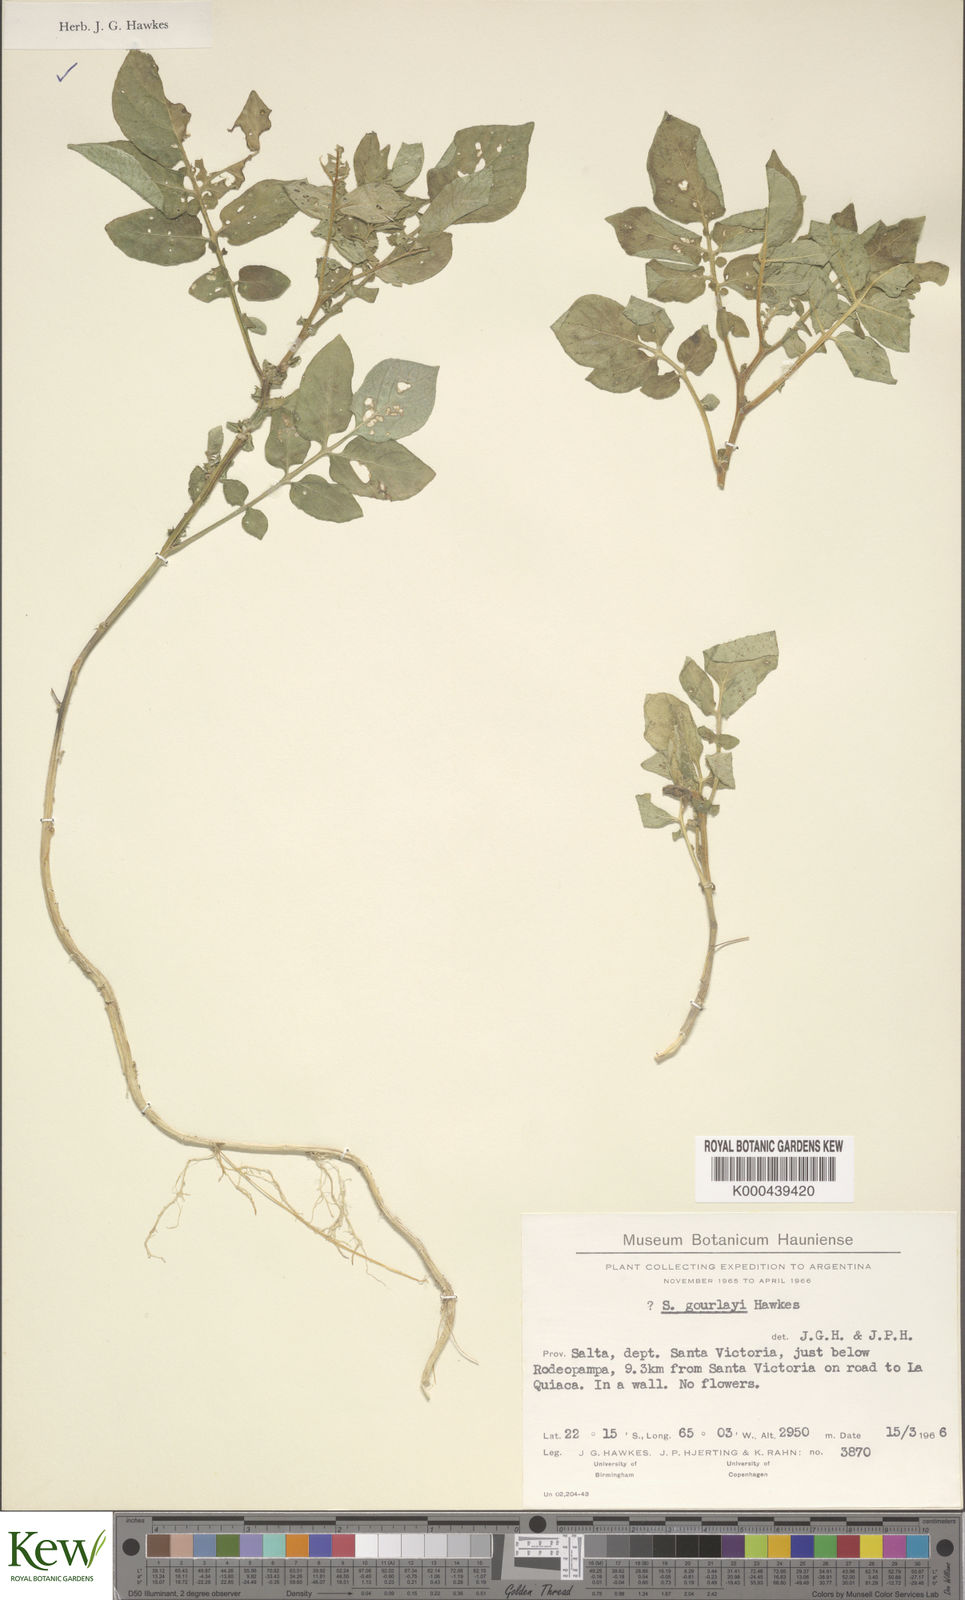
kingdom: Plantae
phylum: Tracheophyta
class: Magnoliopsida
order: Solanales
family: Solanaceae
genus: Solanum
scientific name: Solanum brevicaule
